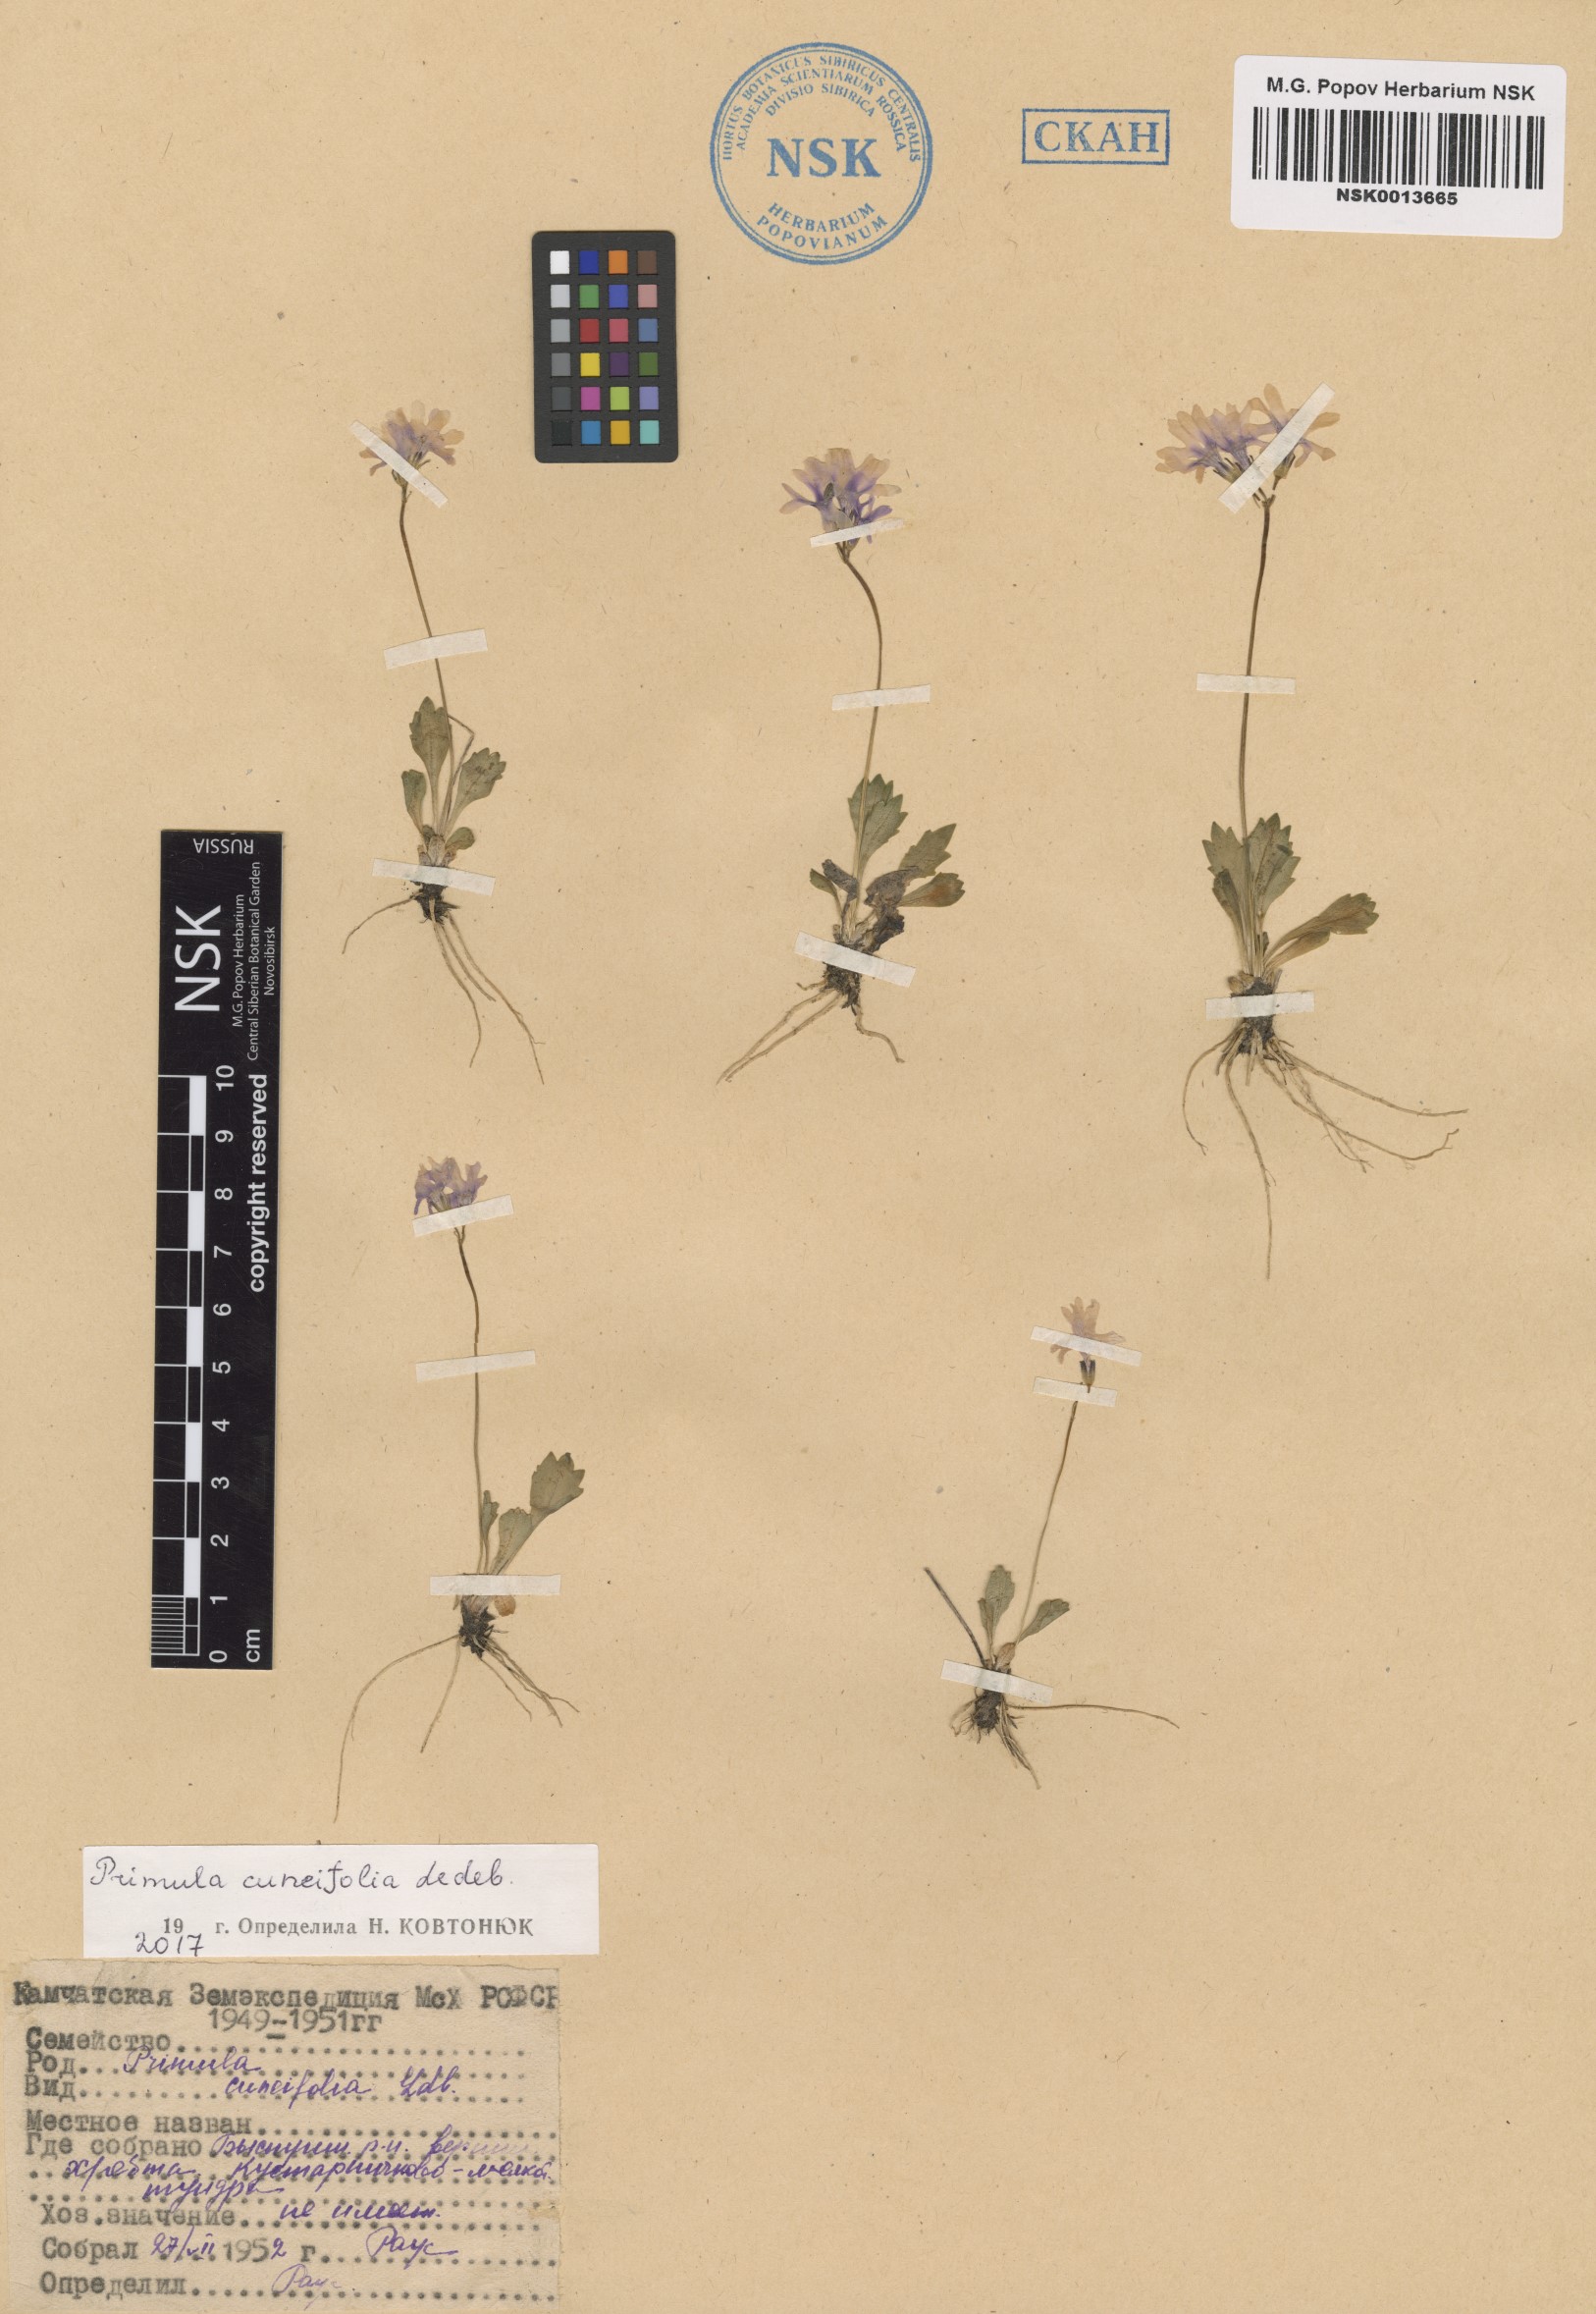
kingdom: Plantae
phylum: Tracheophyta
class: Magnoliopsida
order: Ericales
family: Primulaceae
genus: Primula
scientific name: Primula cuneifolia
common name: Wedge-leaved primrose
